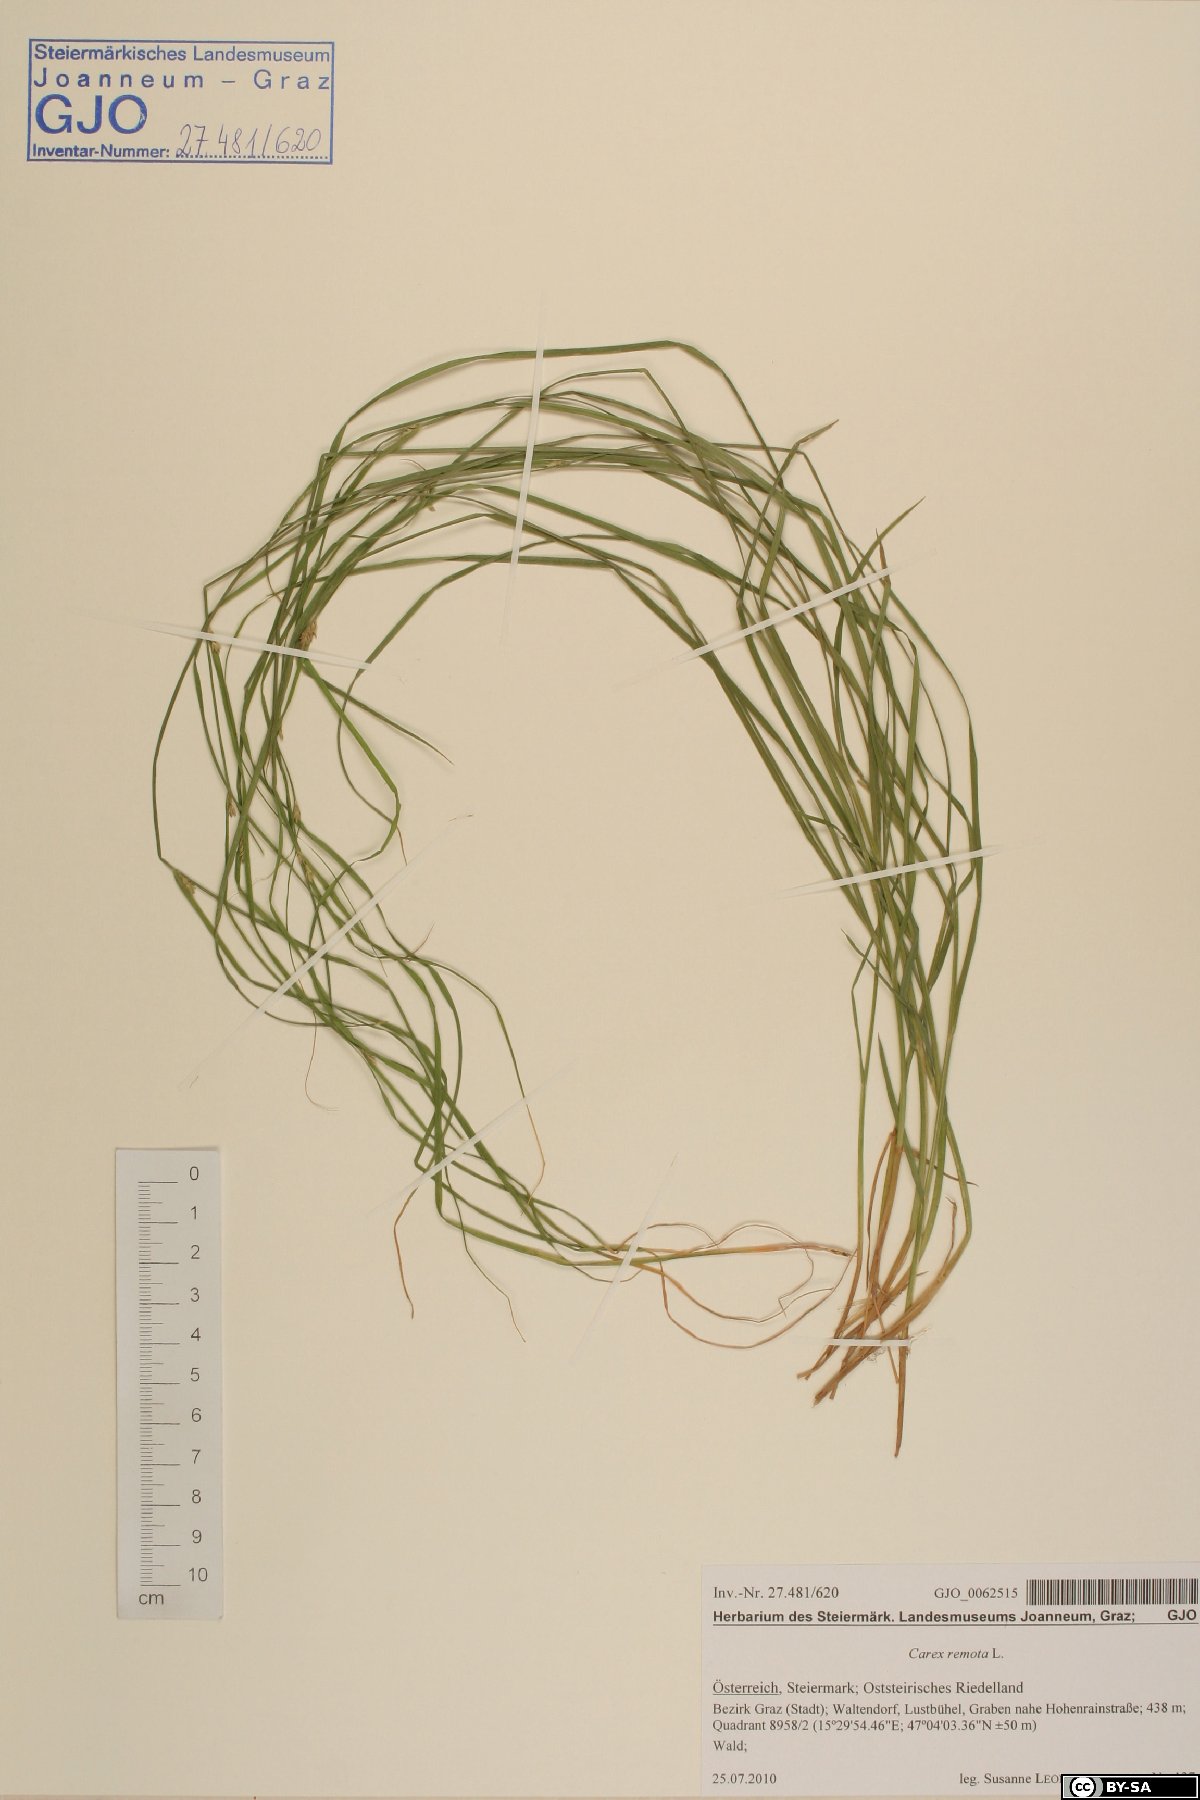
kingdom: Plantae
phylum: Tracheophyta
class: Liliopsida
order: Poales
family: Cyperaceae
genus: Carex
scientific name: Carex remota
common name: Remote sedge
